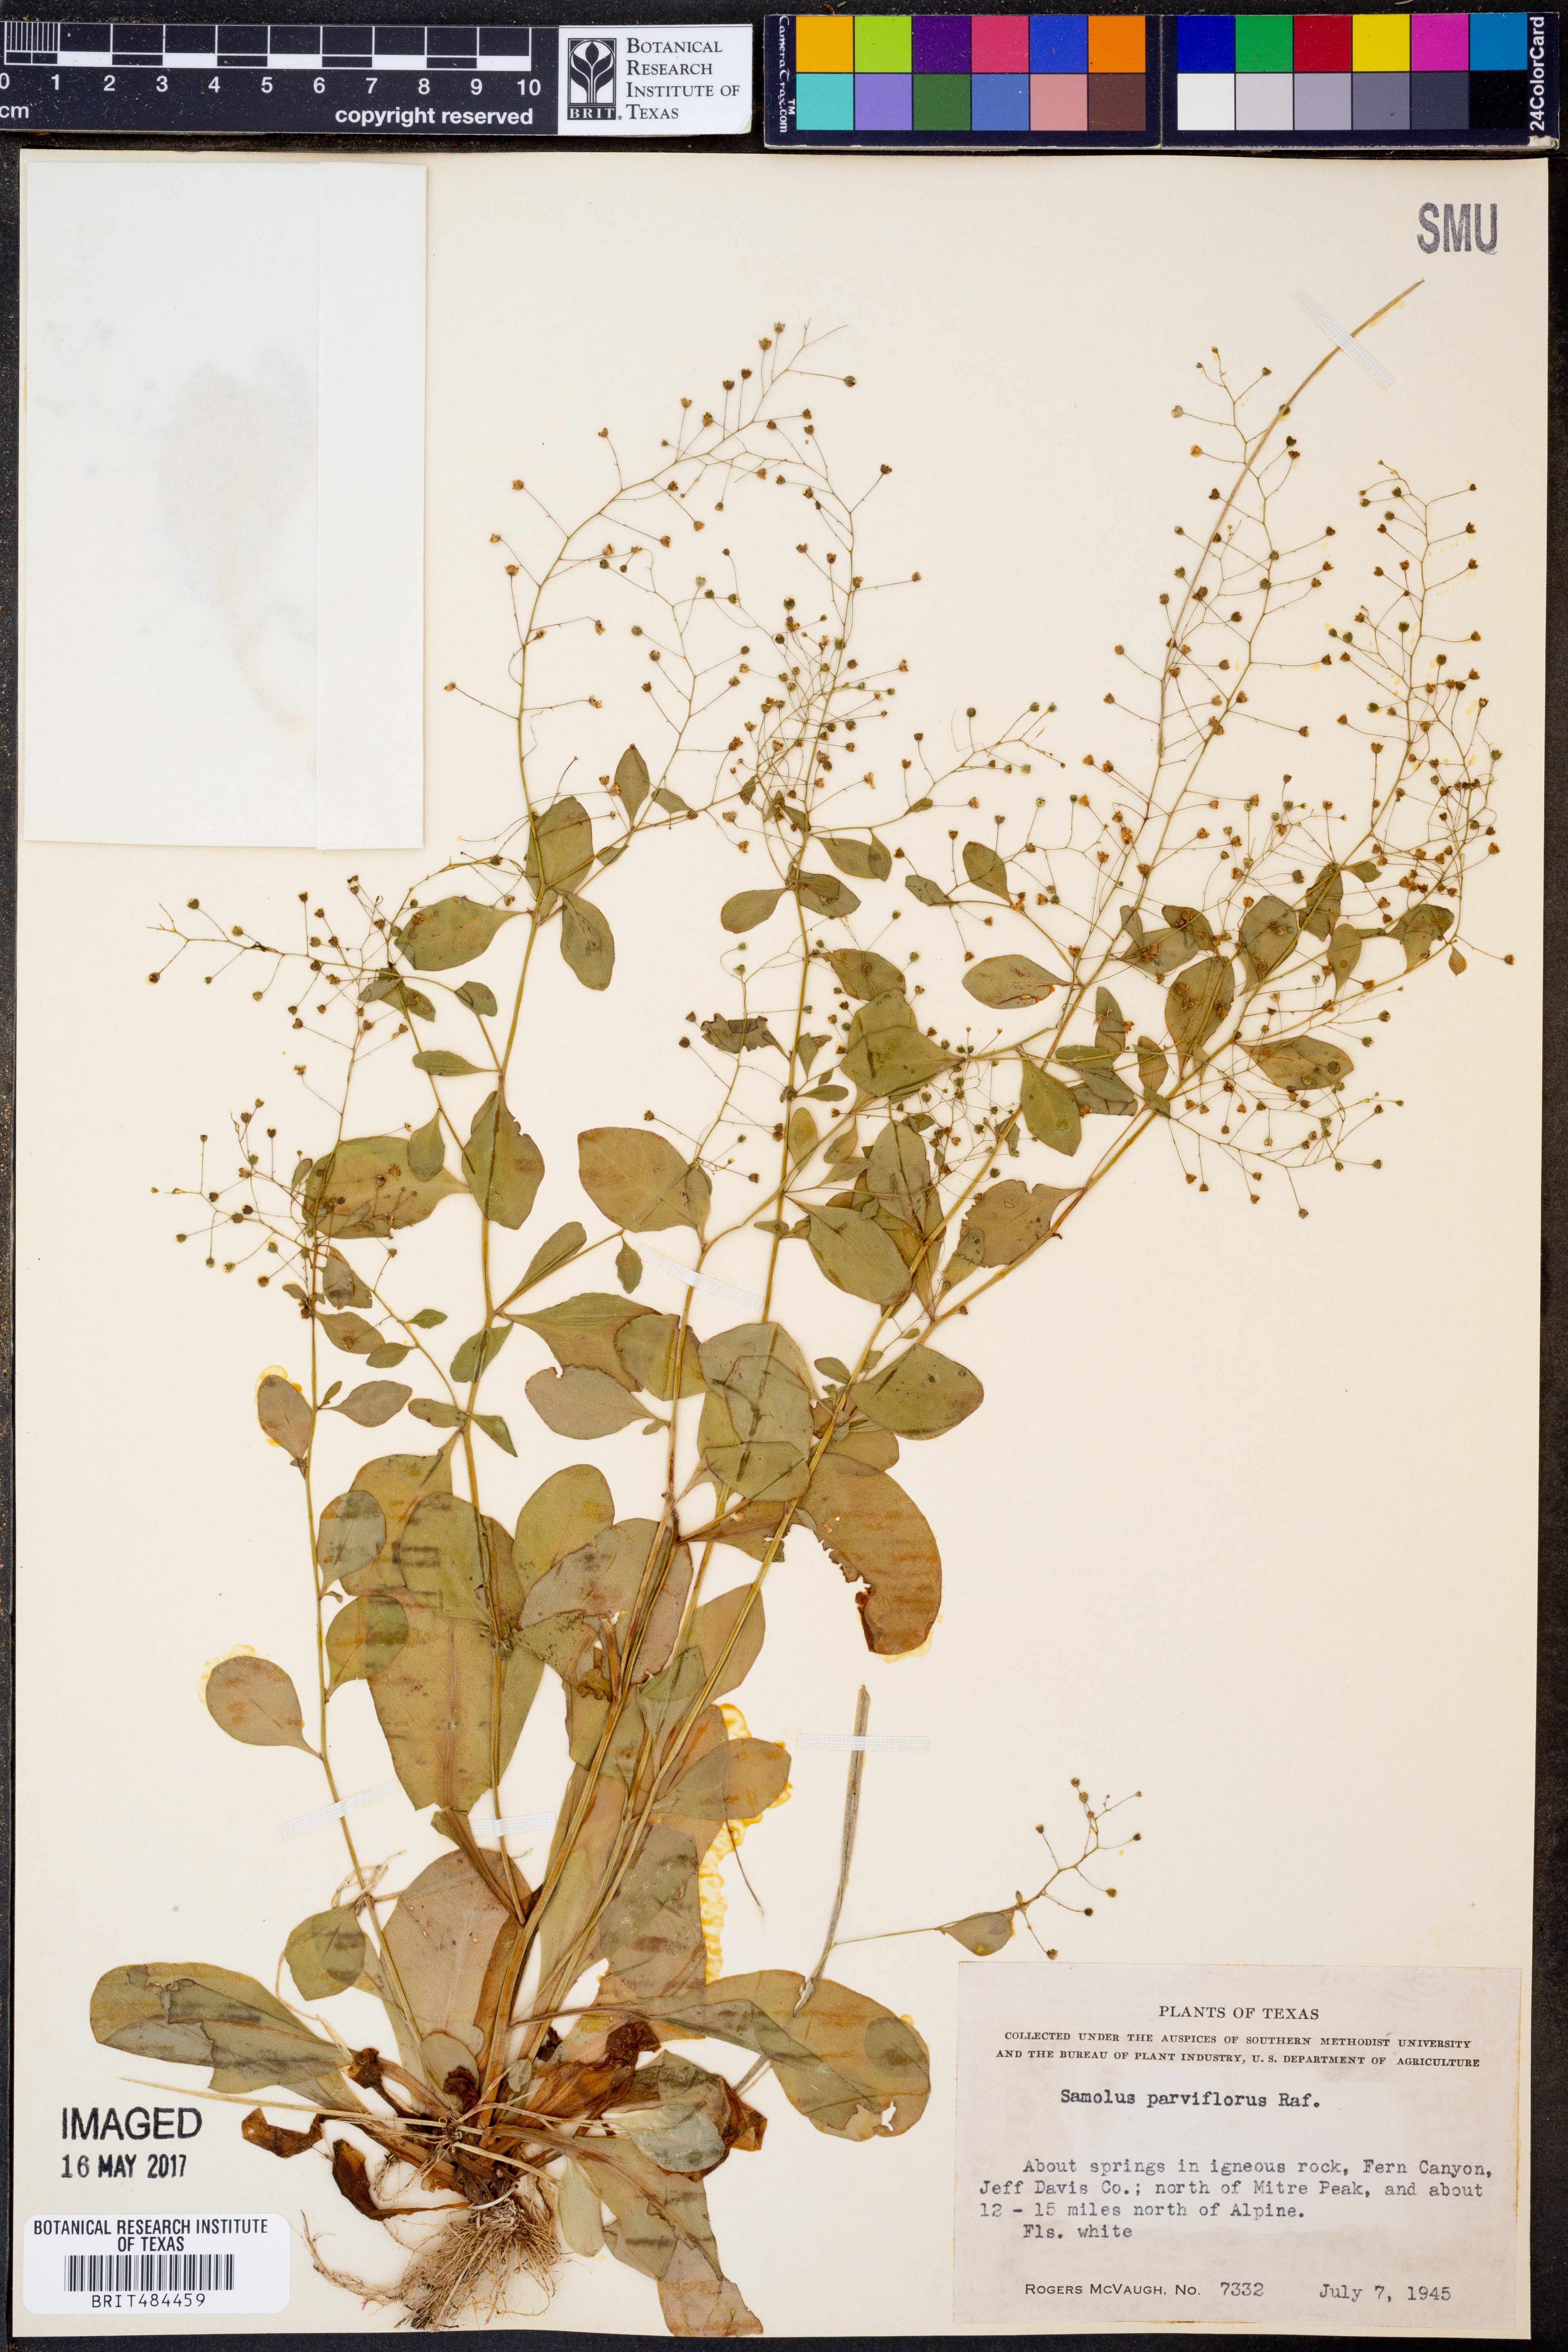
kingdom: Plantae
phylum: Tracheophyta
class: Magnoliopsida
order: Ericales
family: Primulaceae
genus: Samolus
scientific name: Samolus parviflorus
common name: False water pimpernel
